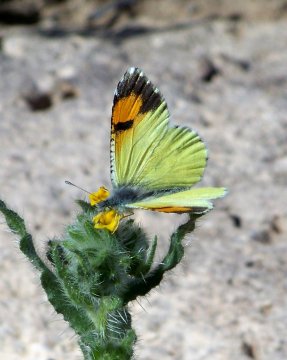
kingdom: Animalia
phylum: Arthropoda
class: Insecta
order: Lepidoptera
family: Pieridae
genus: Anthocharis
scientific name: Anthocharis cethura
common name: Desert Orangetip
